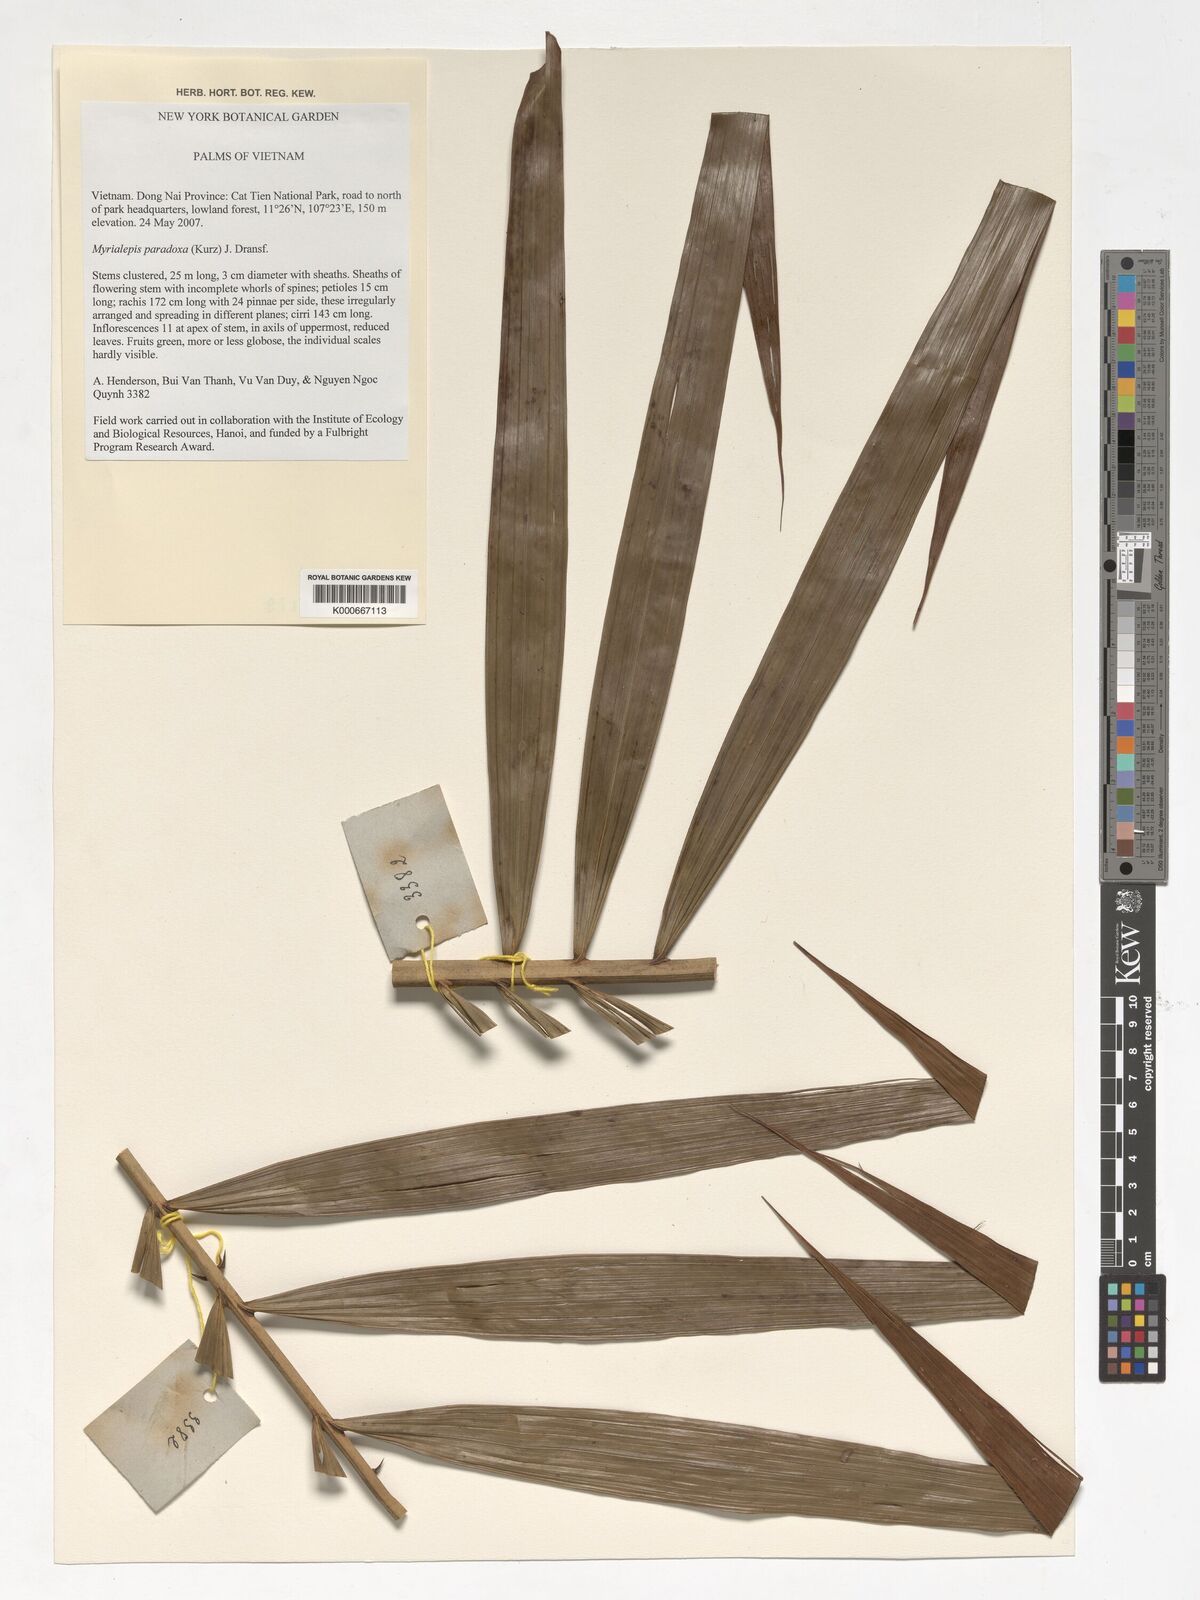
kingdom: Plantae
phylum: Tracheophyta
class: Liliopsida
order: Arecales
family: Arecaceae
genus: Myrialepis
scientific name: Myrialepis paradoxa
